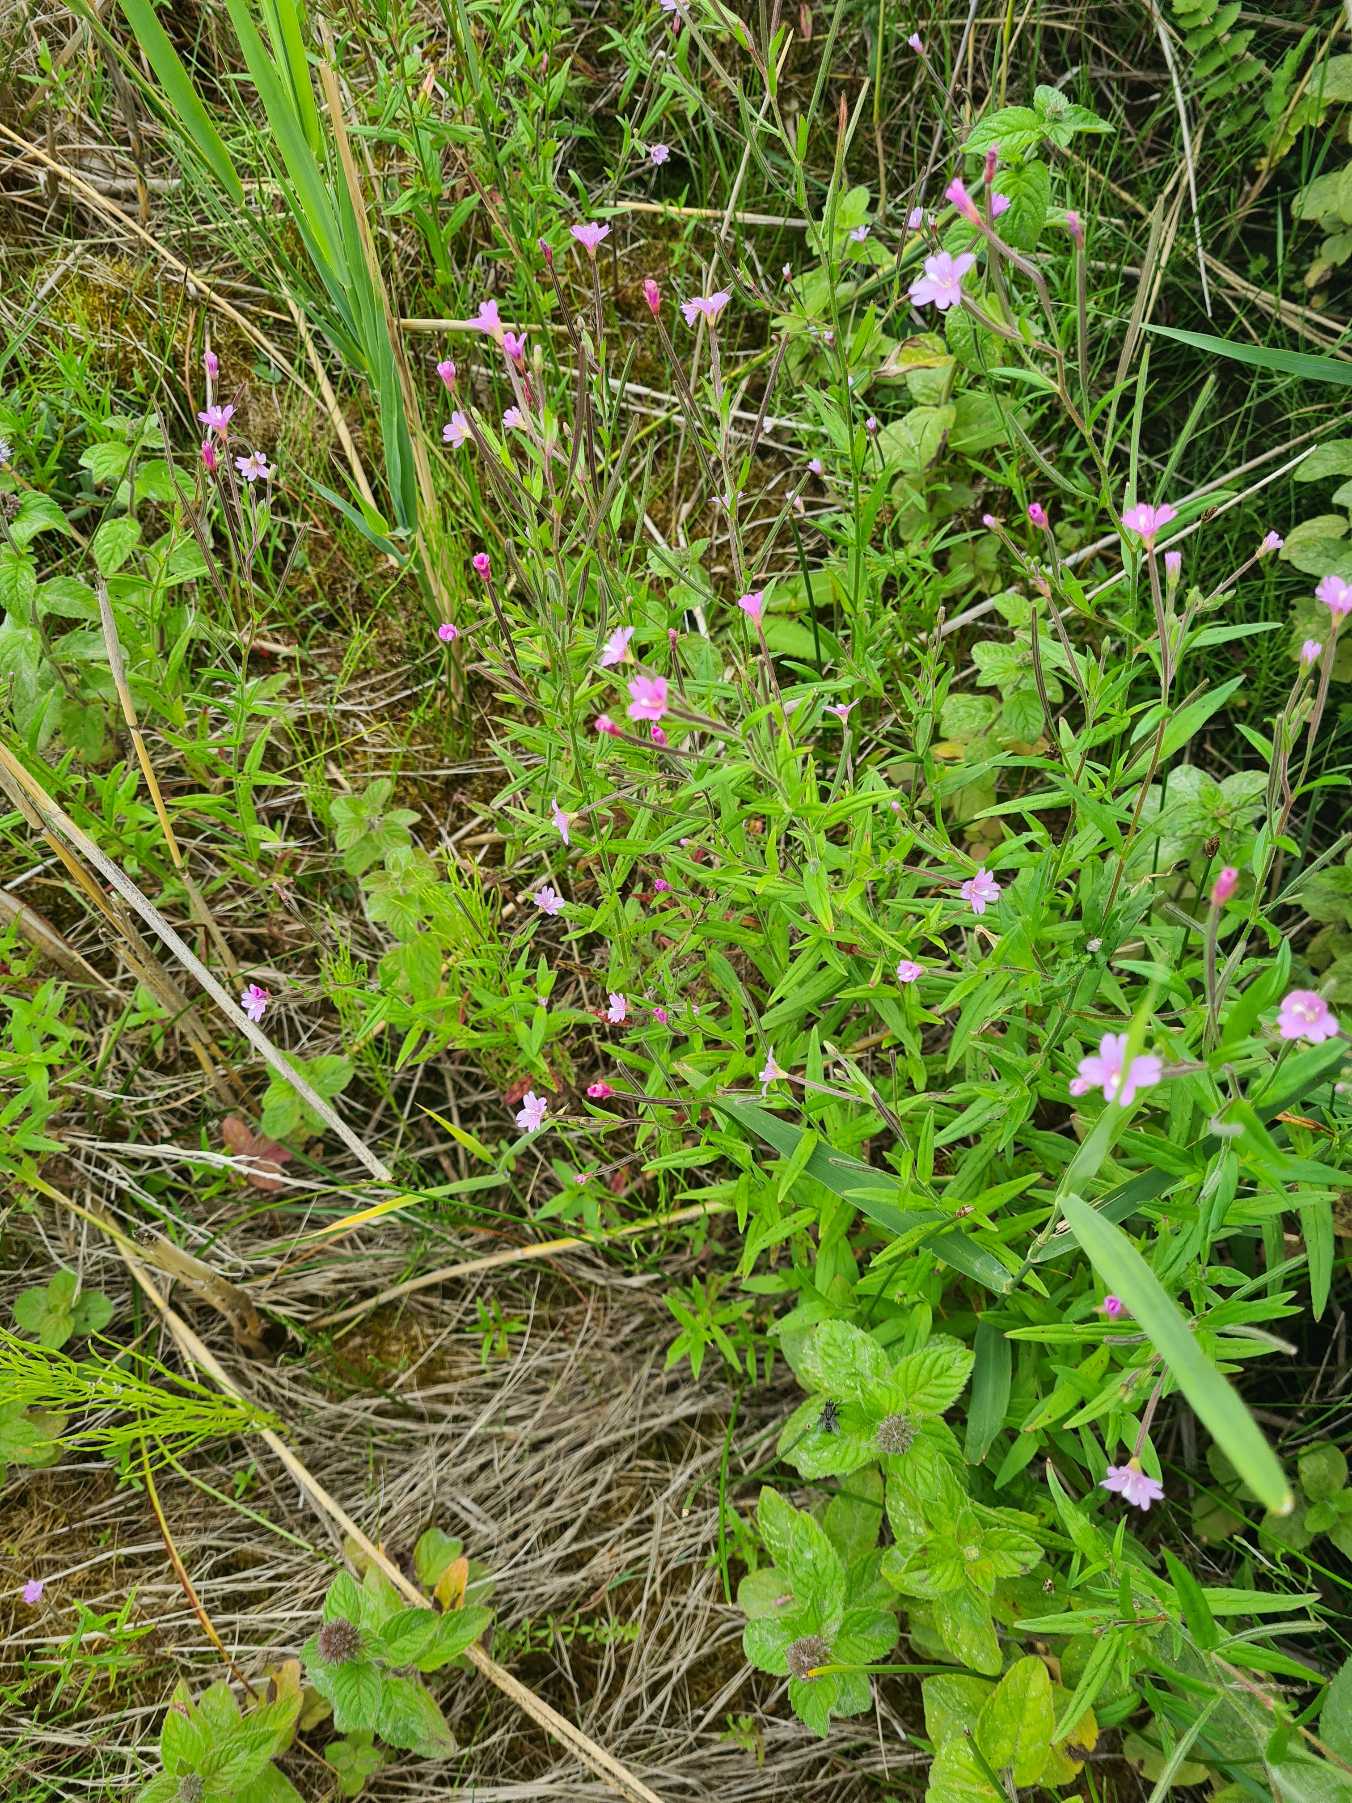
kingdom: Plantae
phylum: Tracheophyta
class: Magnoliopsida
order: Myrtales
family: Onagraceae
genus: Epilobium
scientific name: Epilobium palustre
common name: Kær-dueurt
